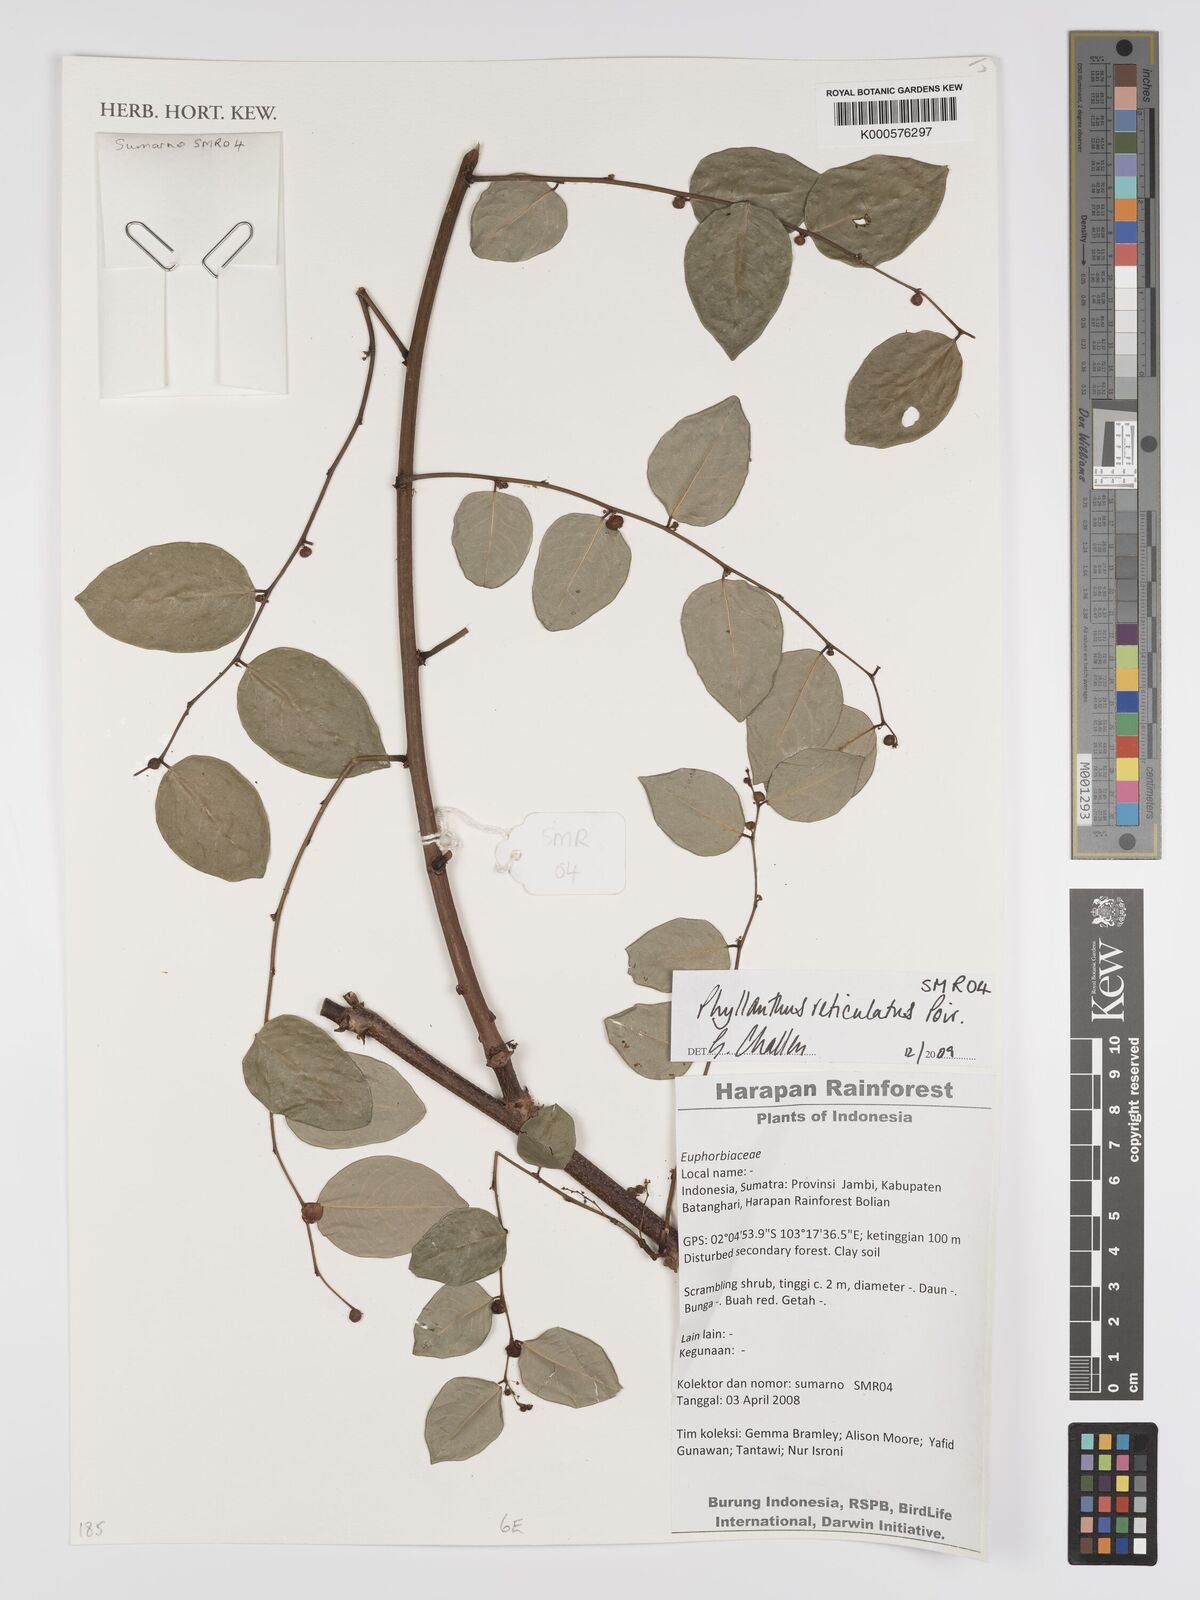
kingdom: Plantae
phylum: Tracheophyta
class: Magnoliopsida
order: Malpighiales
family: Phyllanthaceae
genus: Phyllanthus
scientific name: Phyllanthus
